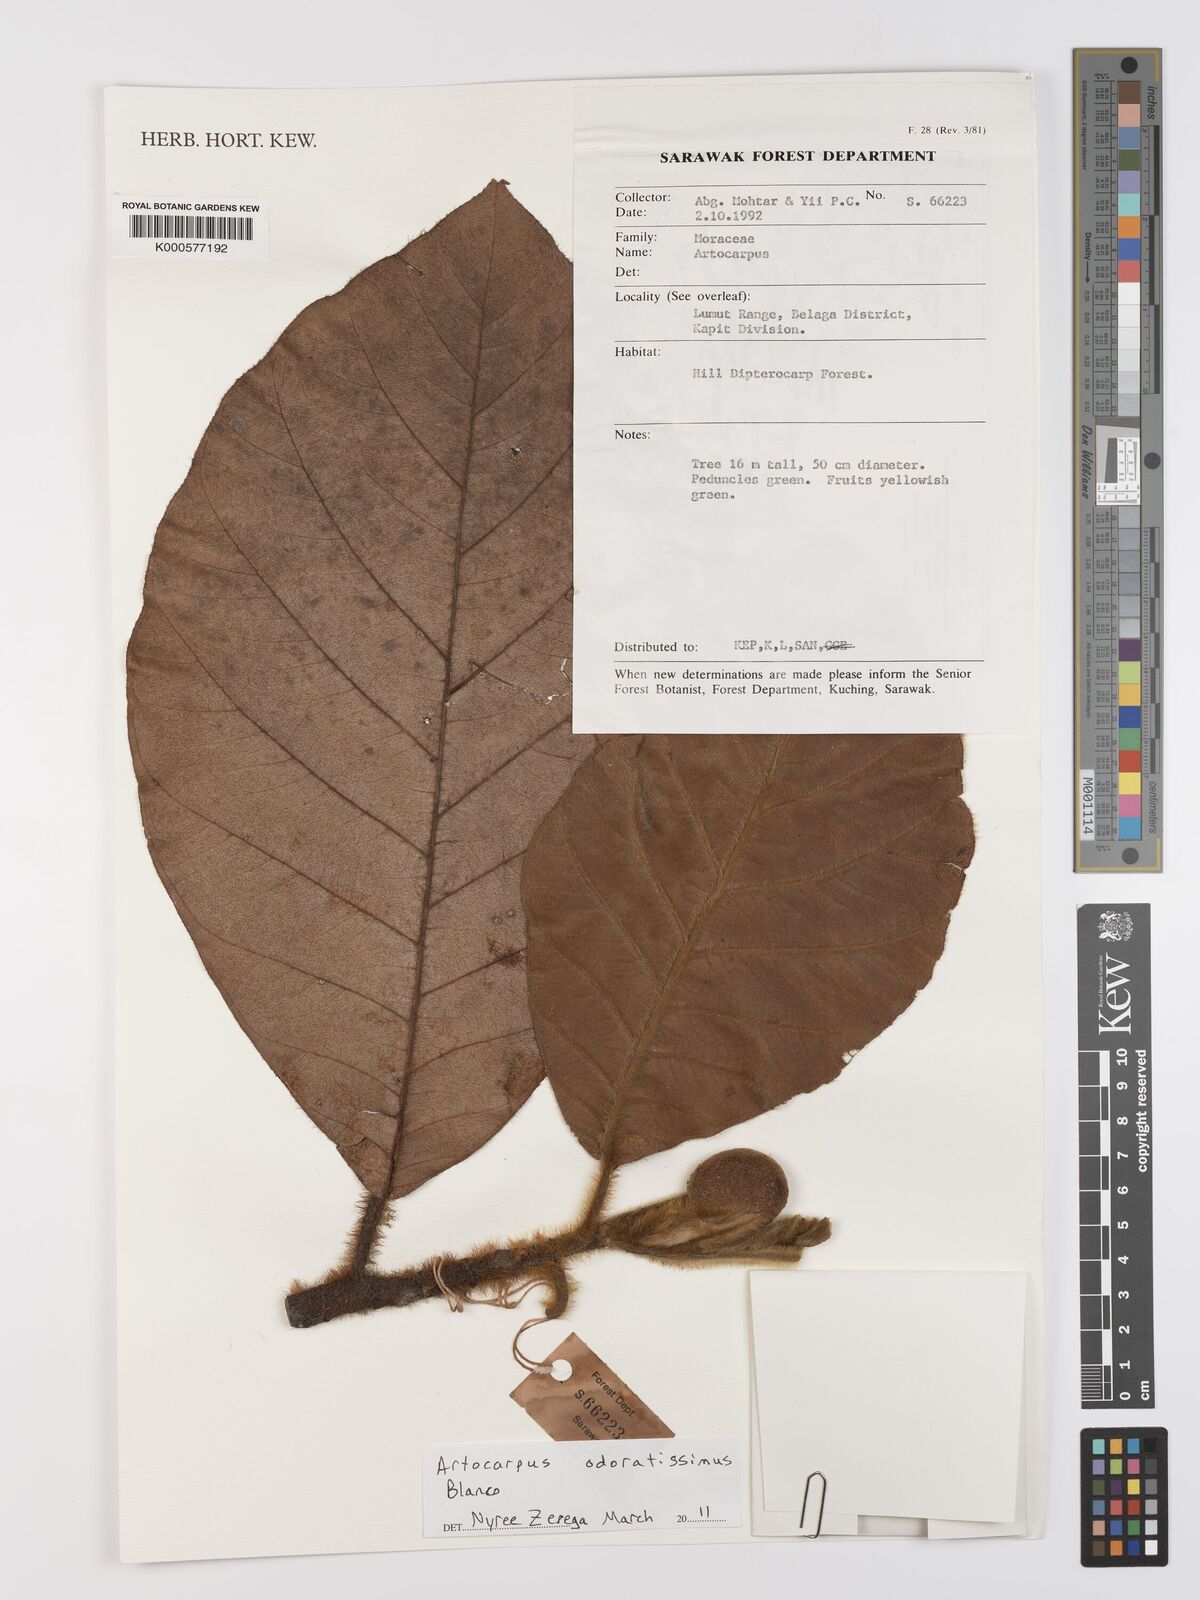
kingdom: Plantae
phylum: Tracheophyta
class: Magnoliopsida
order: Rosales
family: Moraceae
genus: Artocarpus
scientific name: Artocarpus odoratissimus
